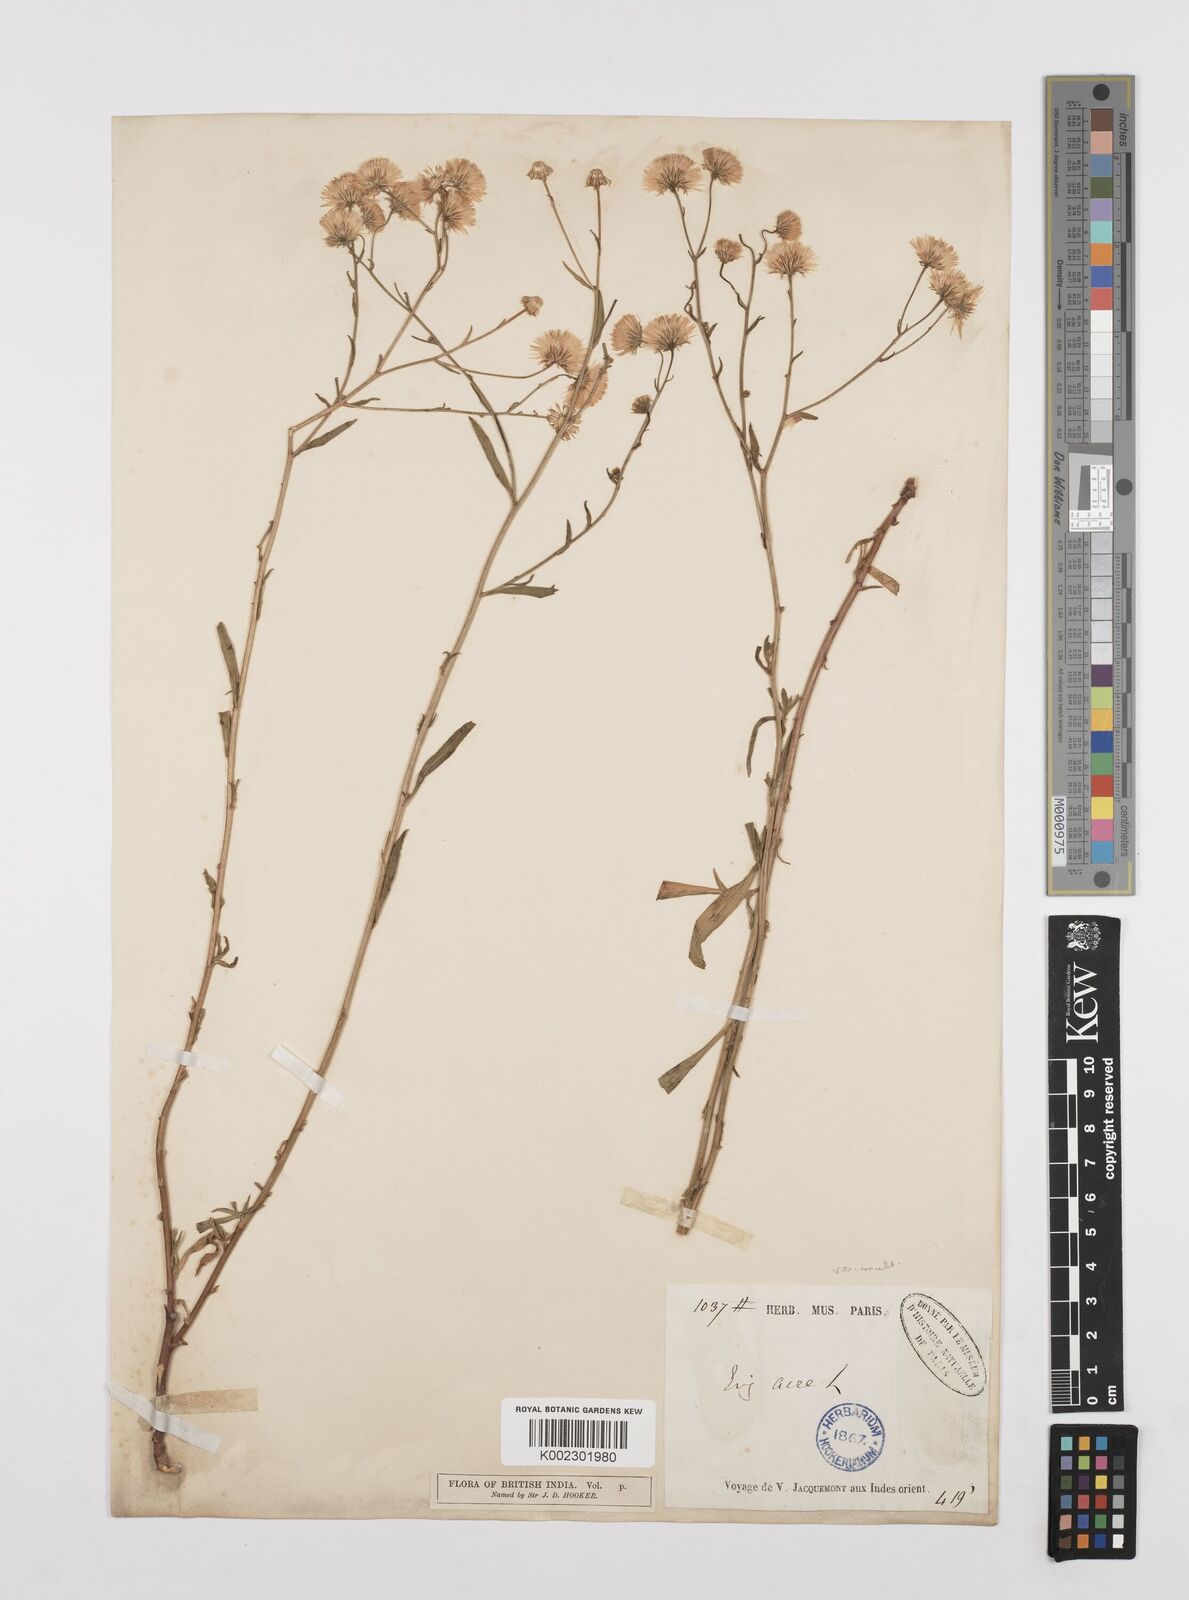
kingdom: Plantae
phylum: Tracheophyta
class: Magnoliopsida
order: Asterales
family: Asteraceae
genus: Erigeron
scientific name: Erigeron alpinus
